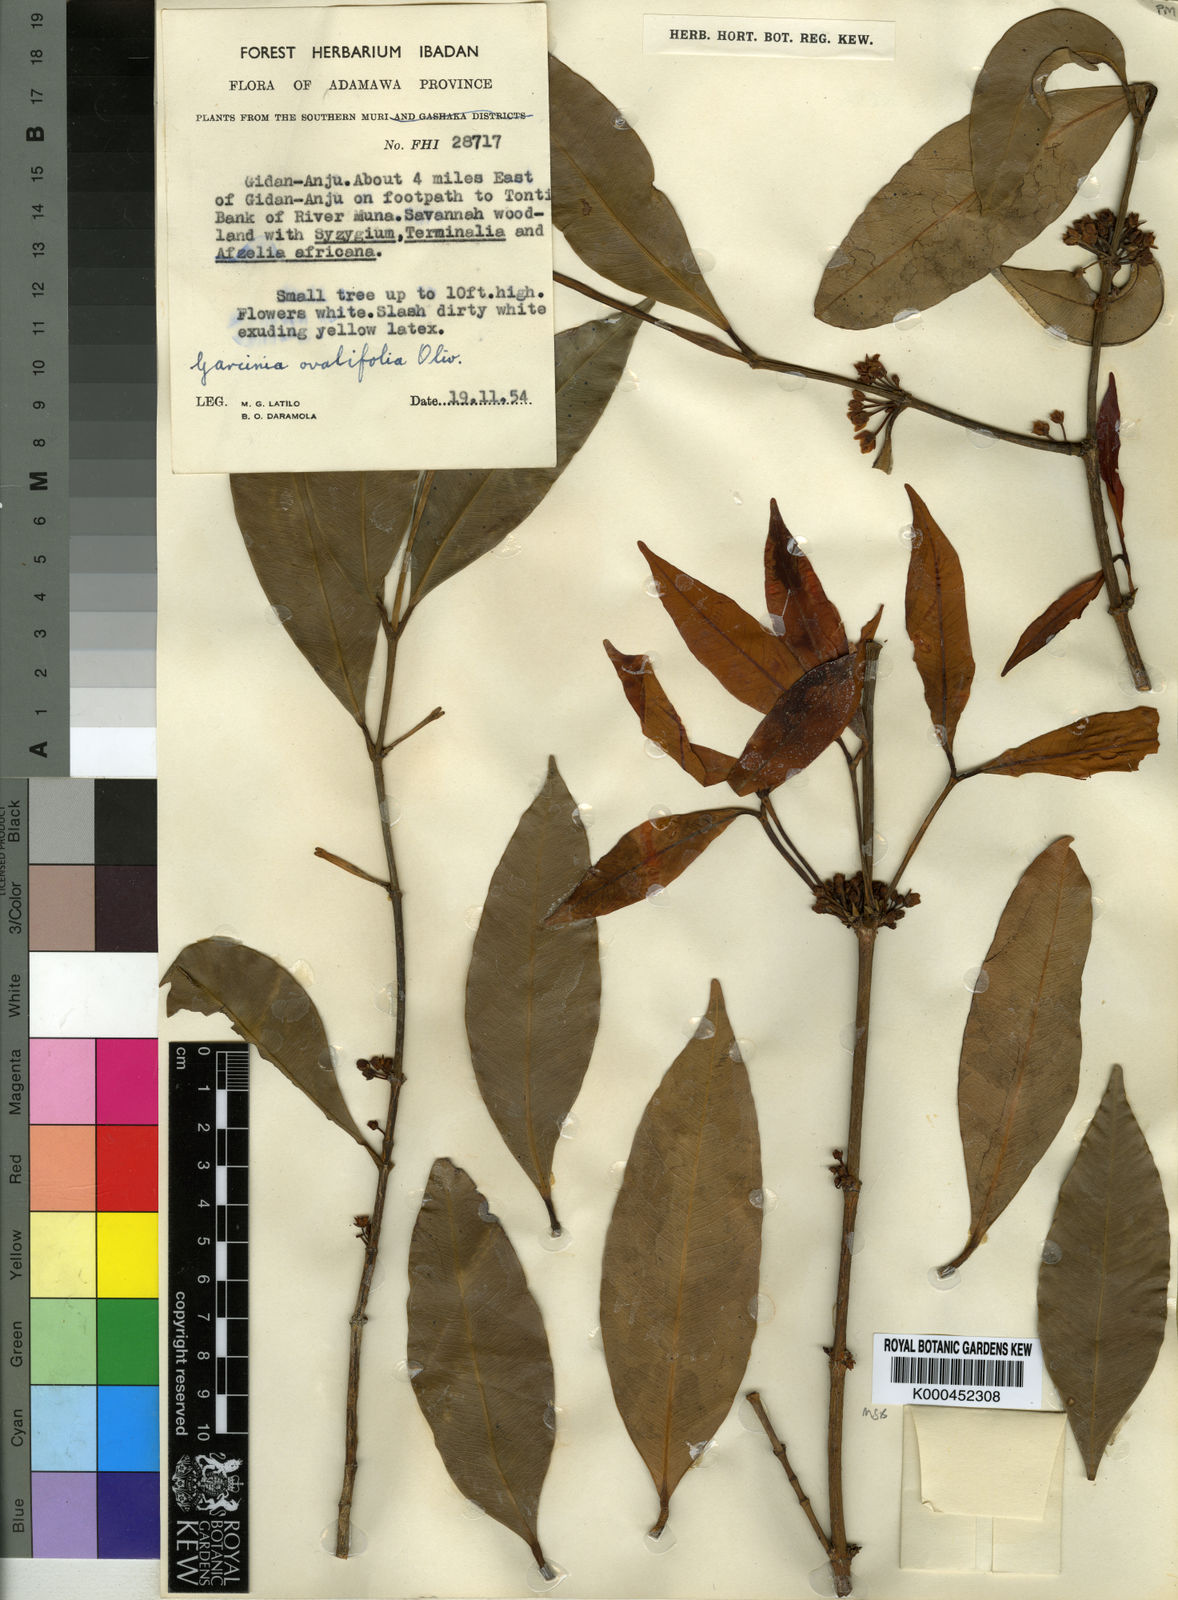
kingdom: Plantae
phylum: Tracheophyta
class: Magnoliopsida
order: Malpighiales
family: Clusiaceae
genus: Garcinia
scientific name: Garcinia ovalifolia
